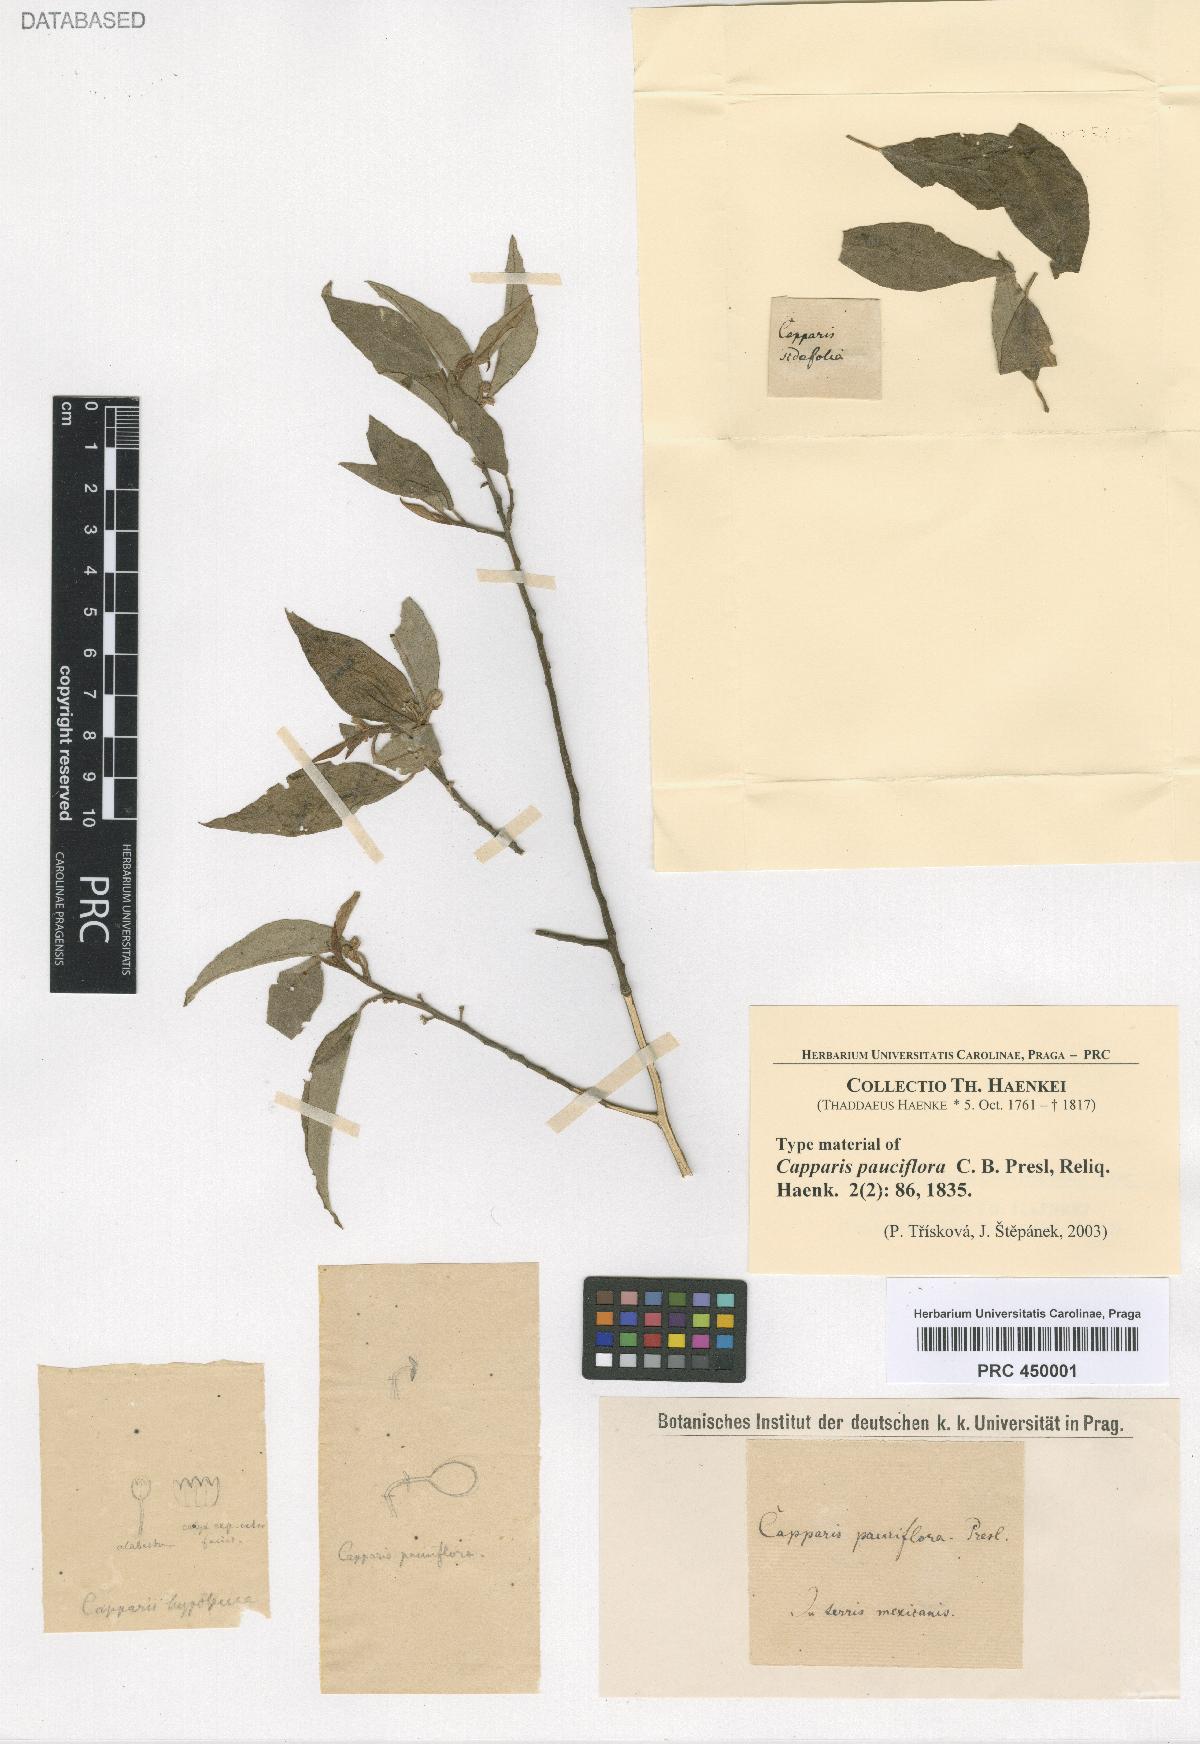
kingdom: Plantae
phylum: Tracheophyta
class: Magnoliopsida
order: Brassicales
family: Capparaceae
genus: Quadrella
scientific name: Quadrella incana
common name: Hoary caper
